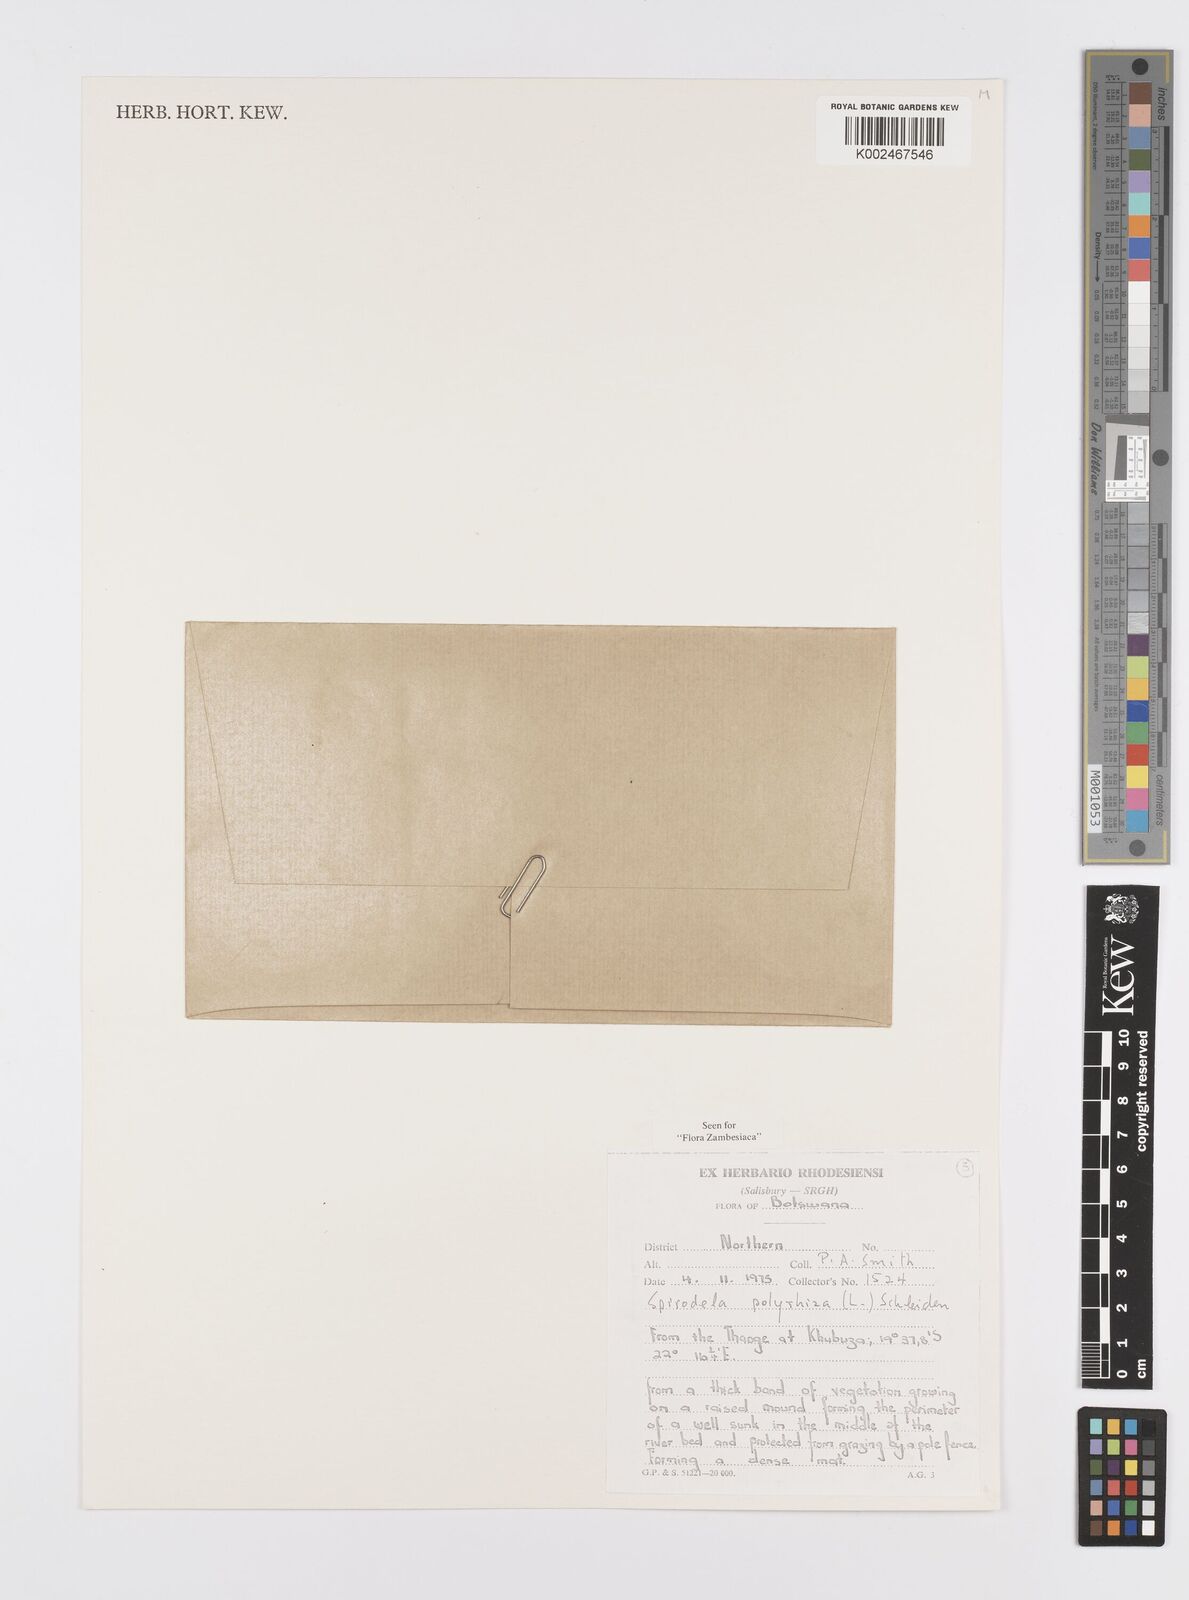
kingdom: Plantae
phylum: Tracheophyta
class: Liliopsida
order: Alismatales
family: Araceae
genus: Spirodela
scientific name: Spirodela polyrhiza
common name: Great duckweed
